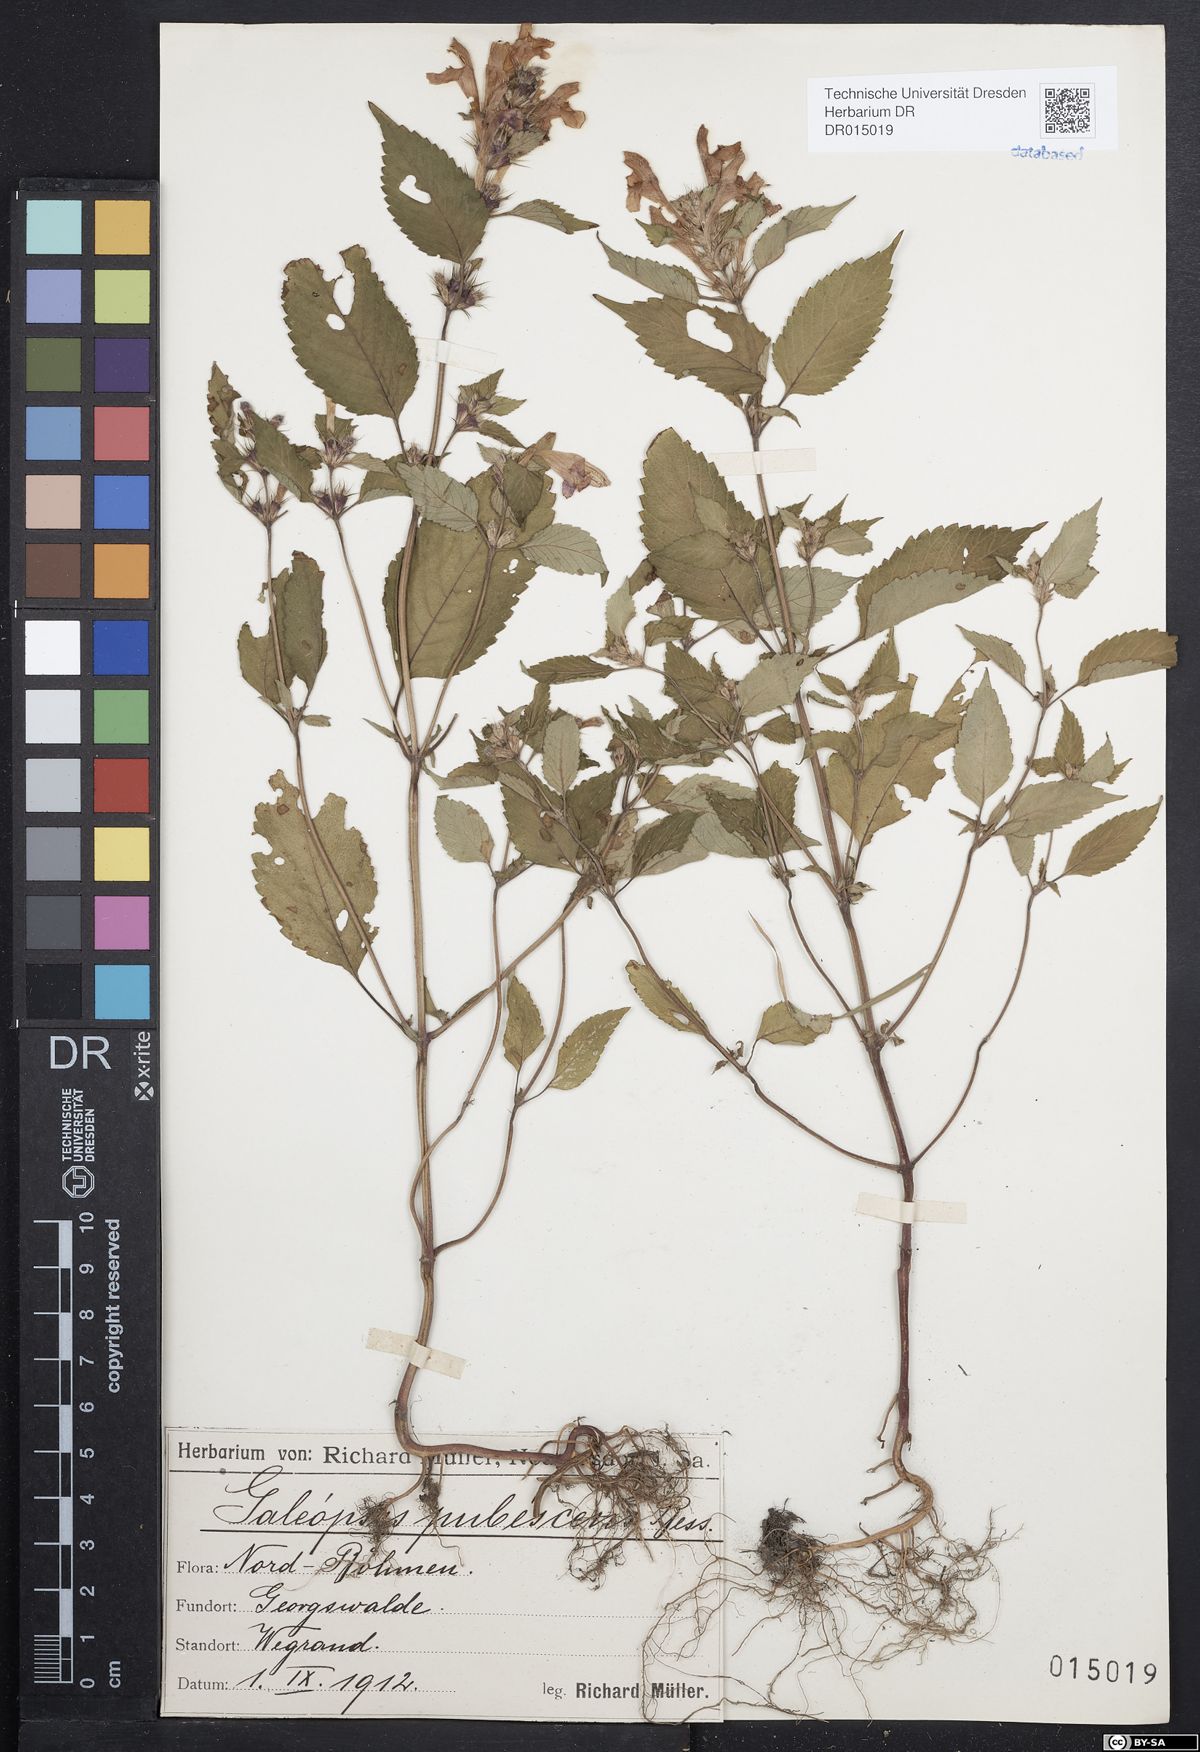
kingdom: Plantae
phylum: Tracheophyta
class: Magnoliopsida
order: Lamiales
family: Lamiaceae
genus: Galeopsis
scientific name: Galeopsis pubescens
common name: Downy hemp-nettle
